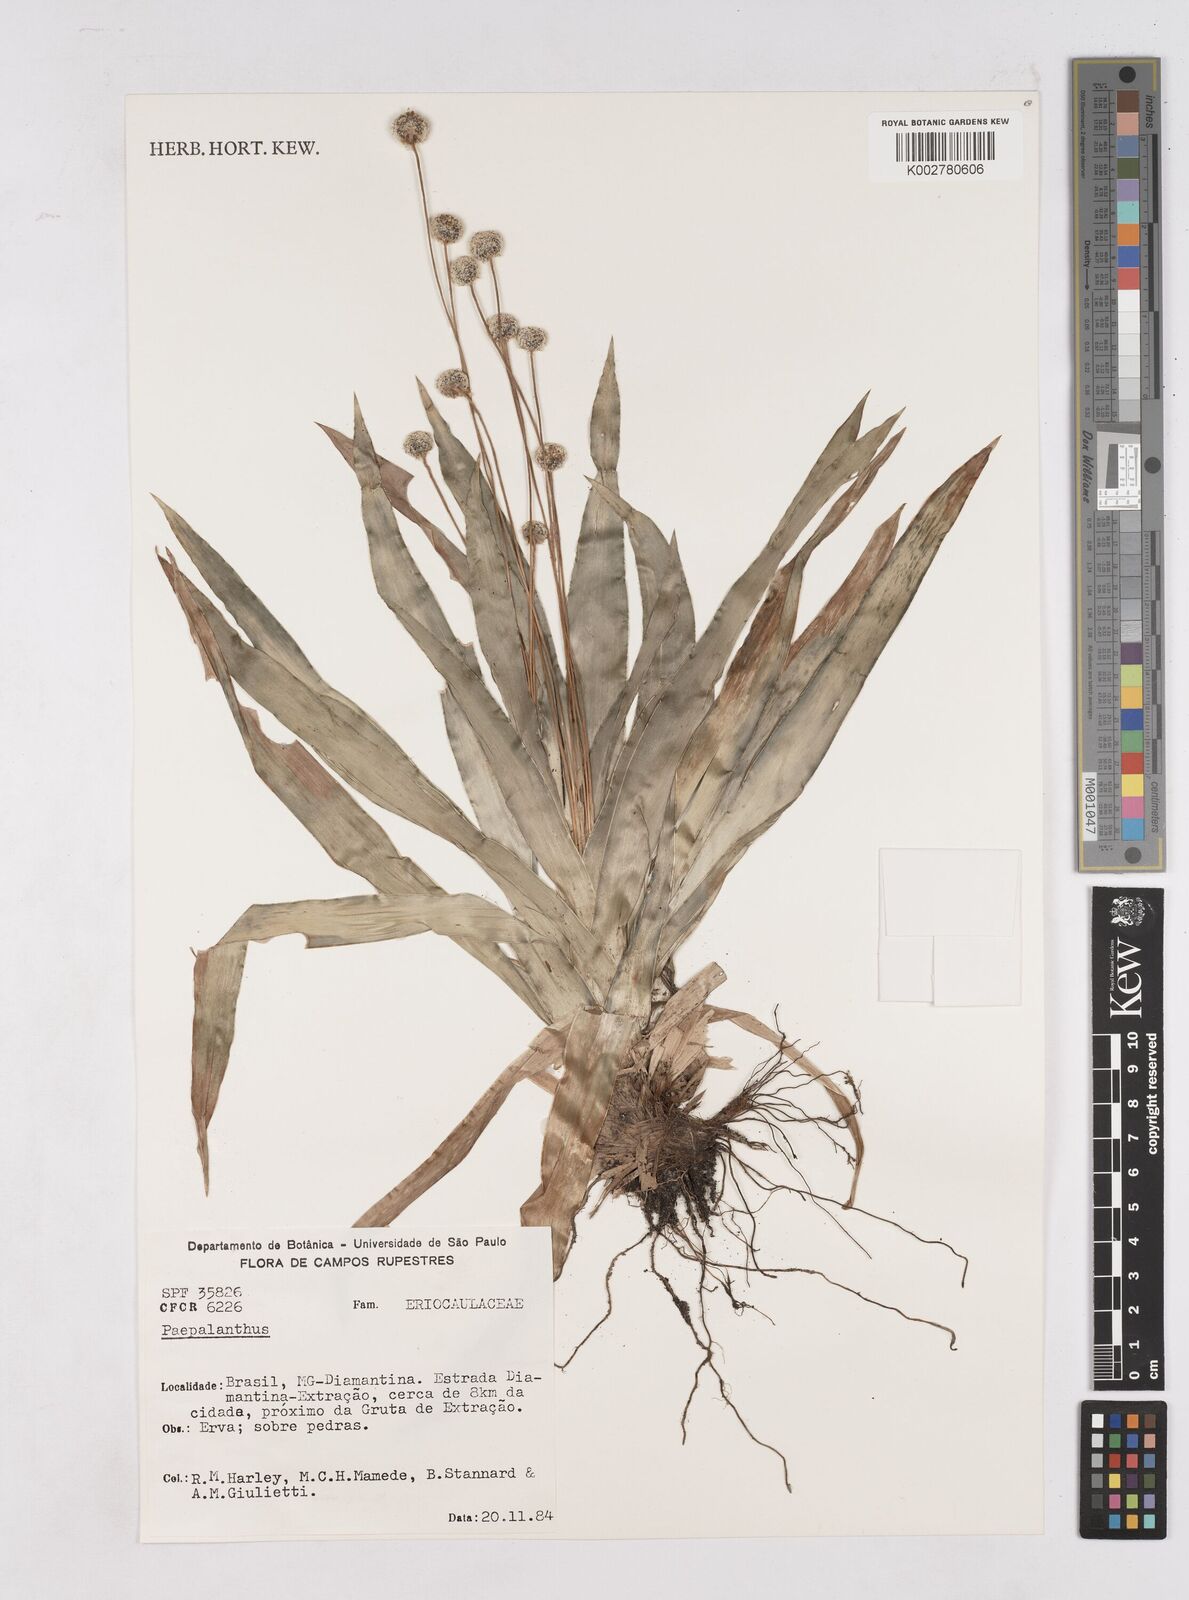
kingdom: Plantae
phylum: Tracheophyta
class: Liliopsida
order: Poales
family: Eriocaulaceae
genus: Paepalanthus
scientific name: Paepalanthus
